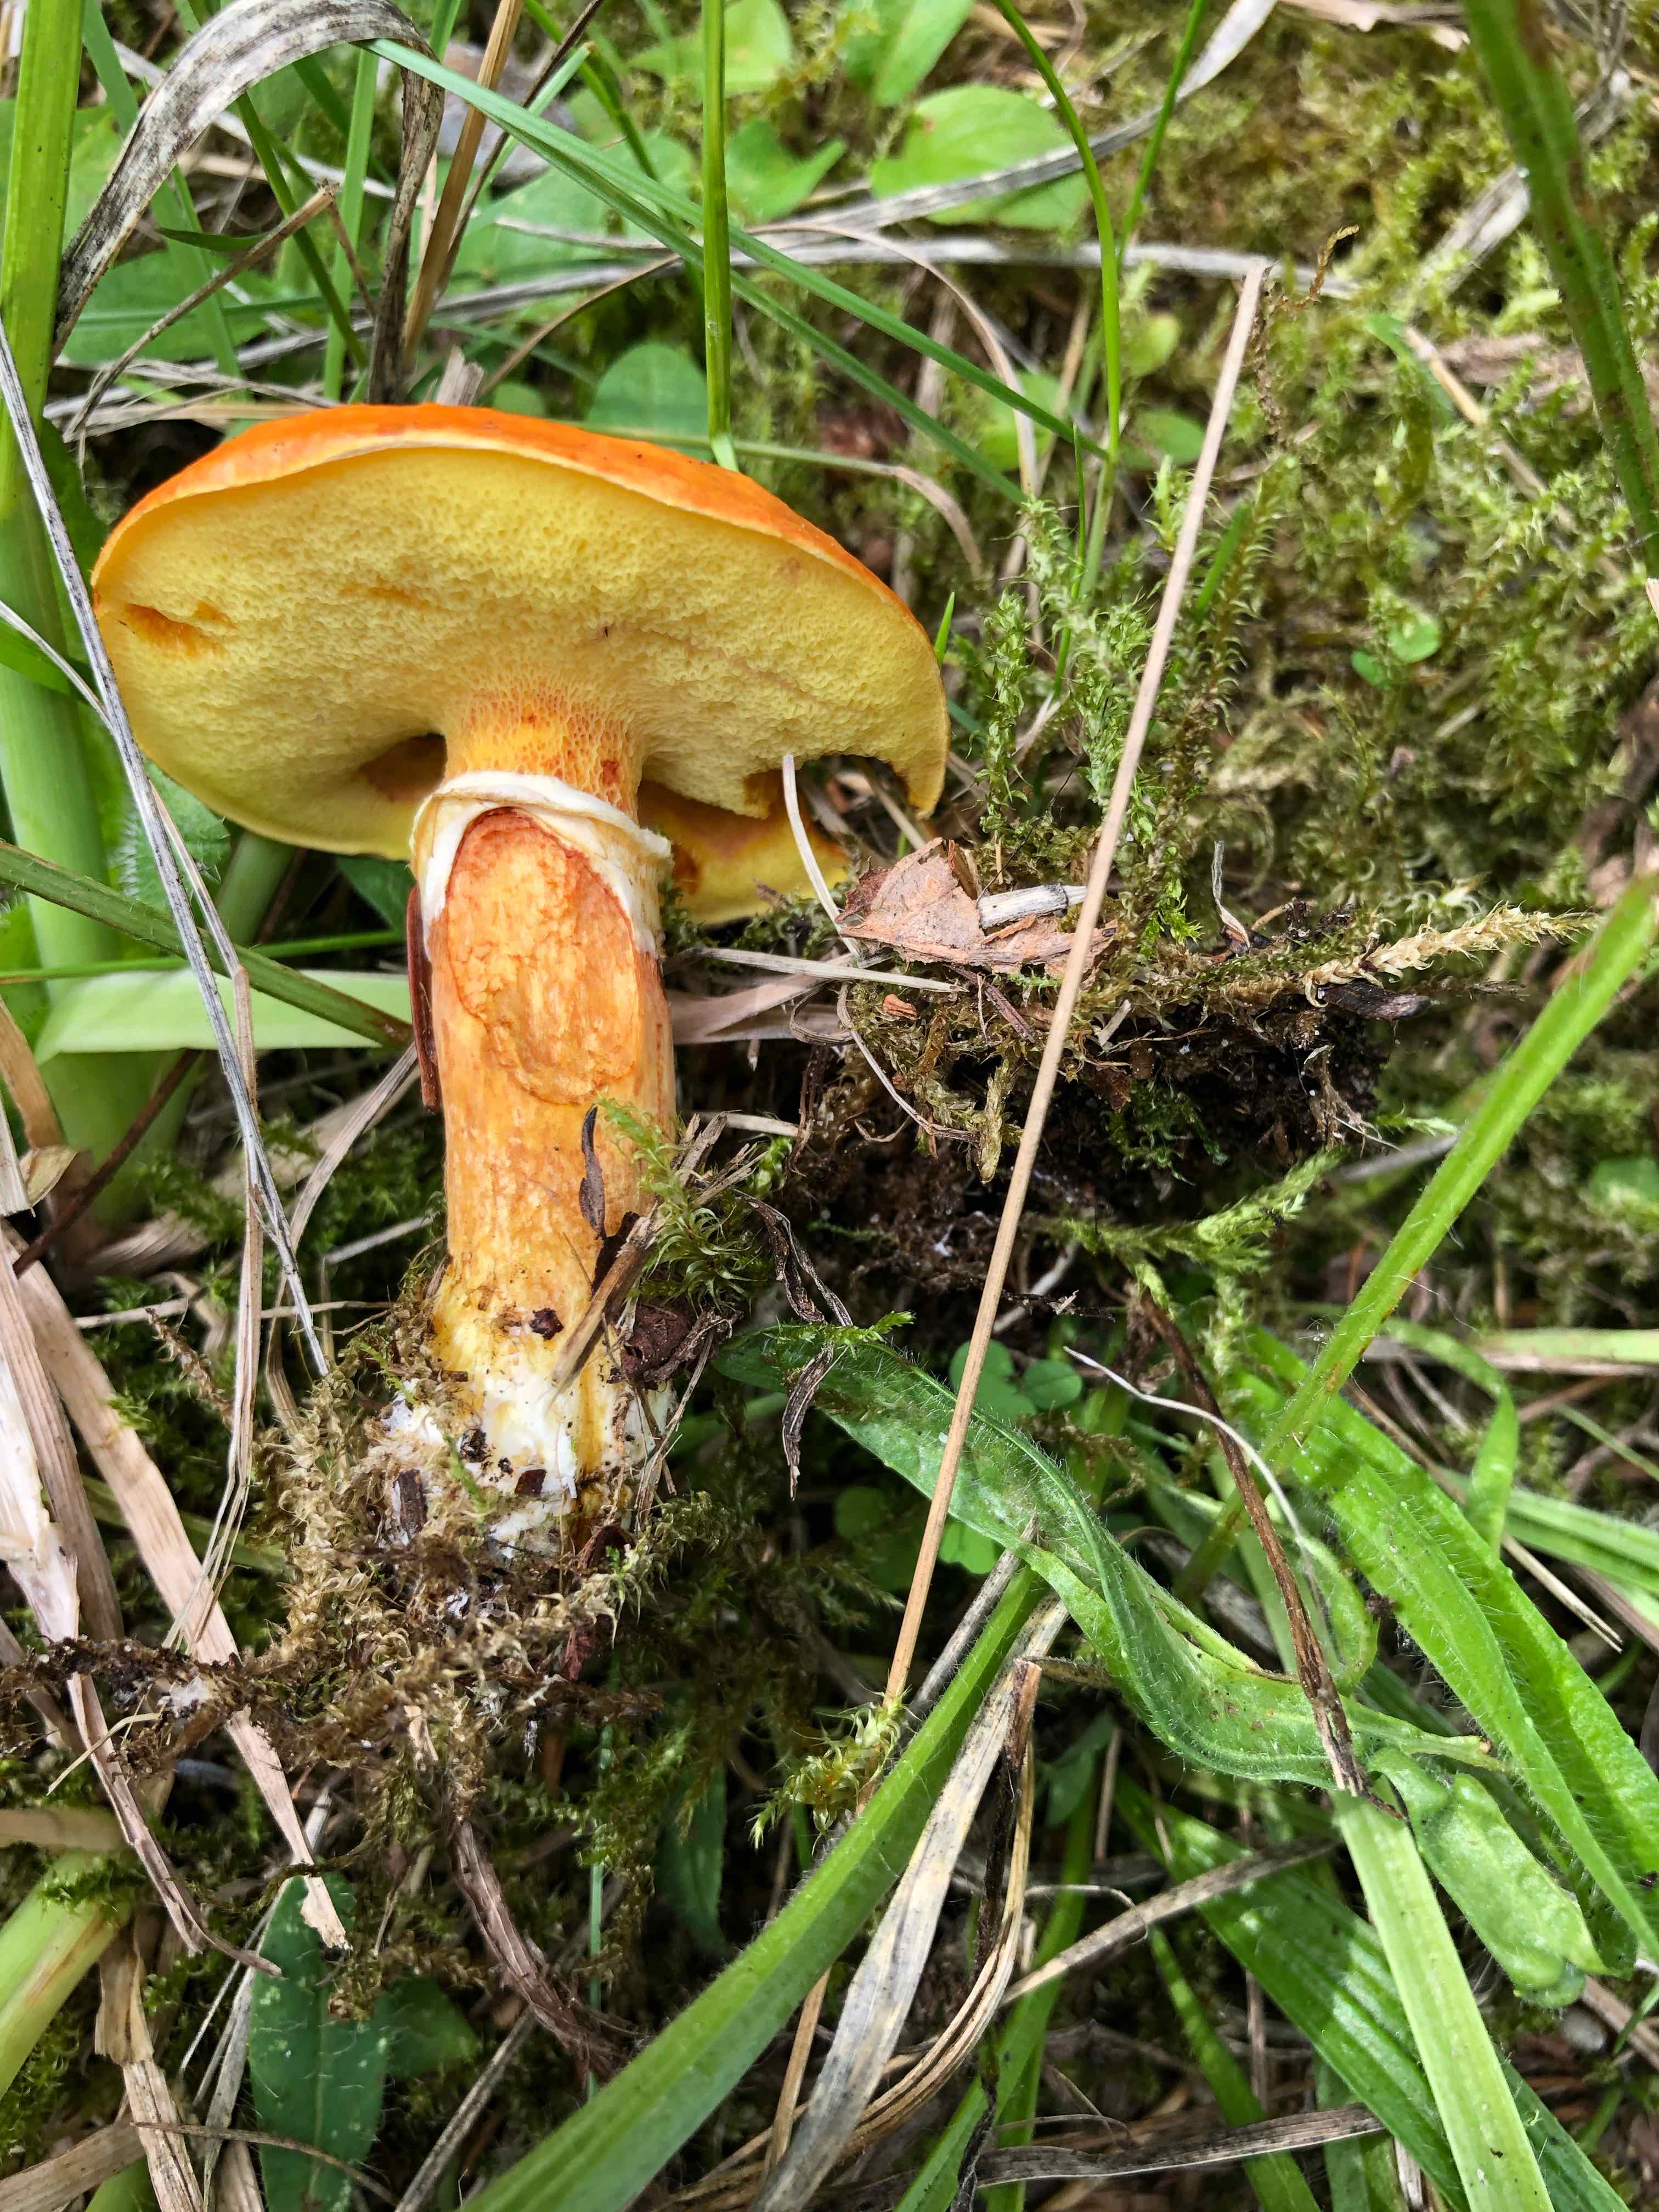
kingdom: Fungi
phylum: Basidiomycota
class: Agaricomycetes
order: Boletales
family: Suillaceae
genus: Suillus
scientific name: Suillus grevillei
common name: lærke-slimrørhat
